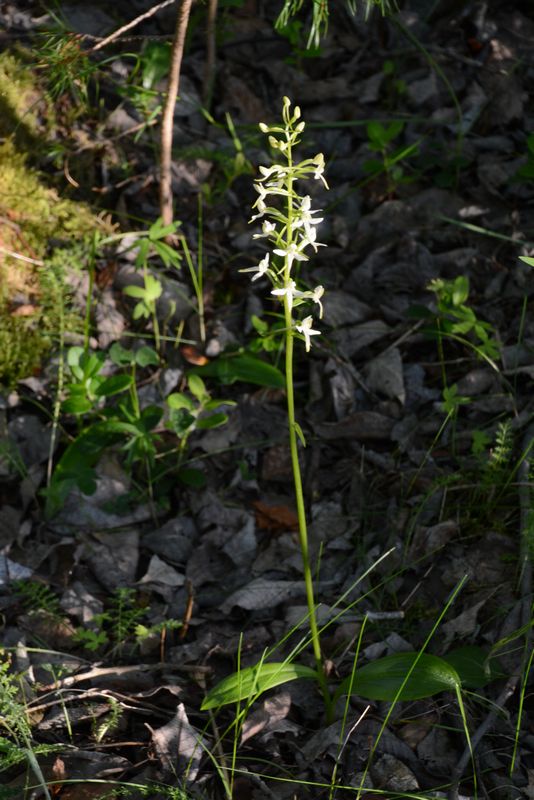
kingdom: Plantae
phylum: Tracheophyta
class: Liliopsida
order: Asparagales
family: Orchidaceae
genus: Platanthera
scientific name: Platanthera bifolia
